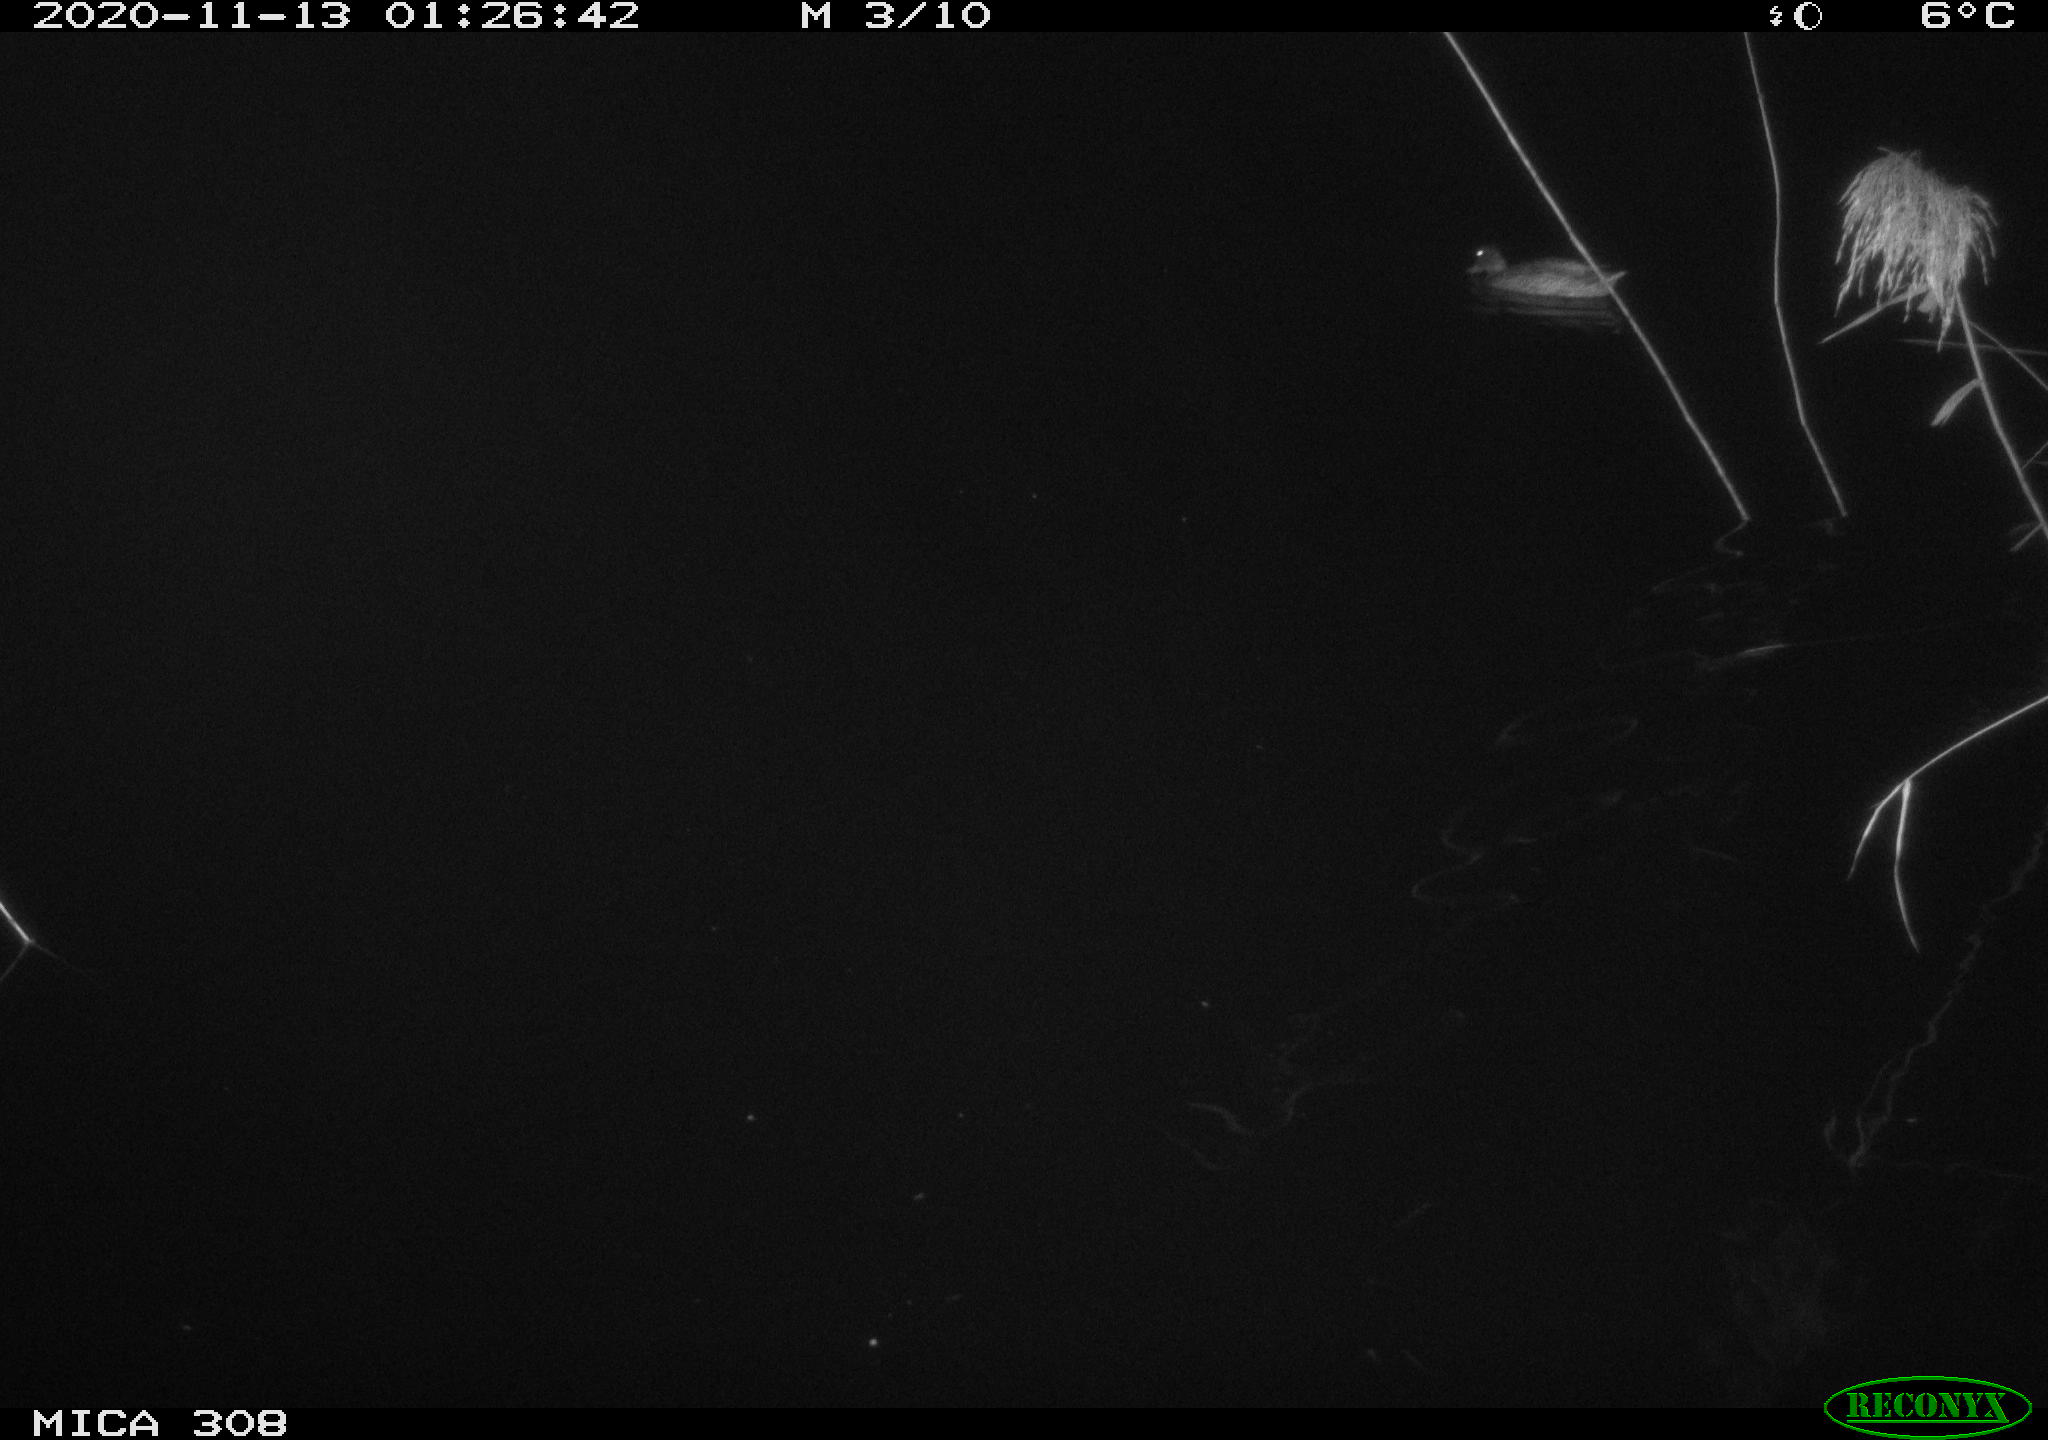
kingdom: Animalia
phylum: Chordata
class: Aves
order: Anseriformes
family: Anatidae
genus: Anas
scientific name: Anas platyrhynchos
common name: Mallard
